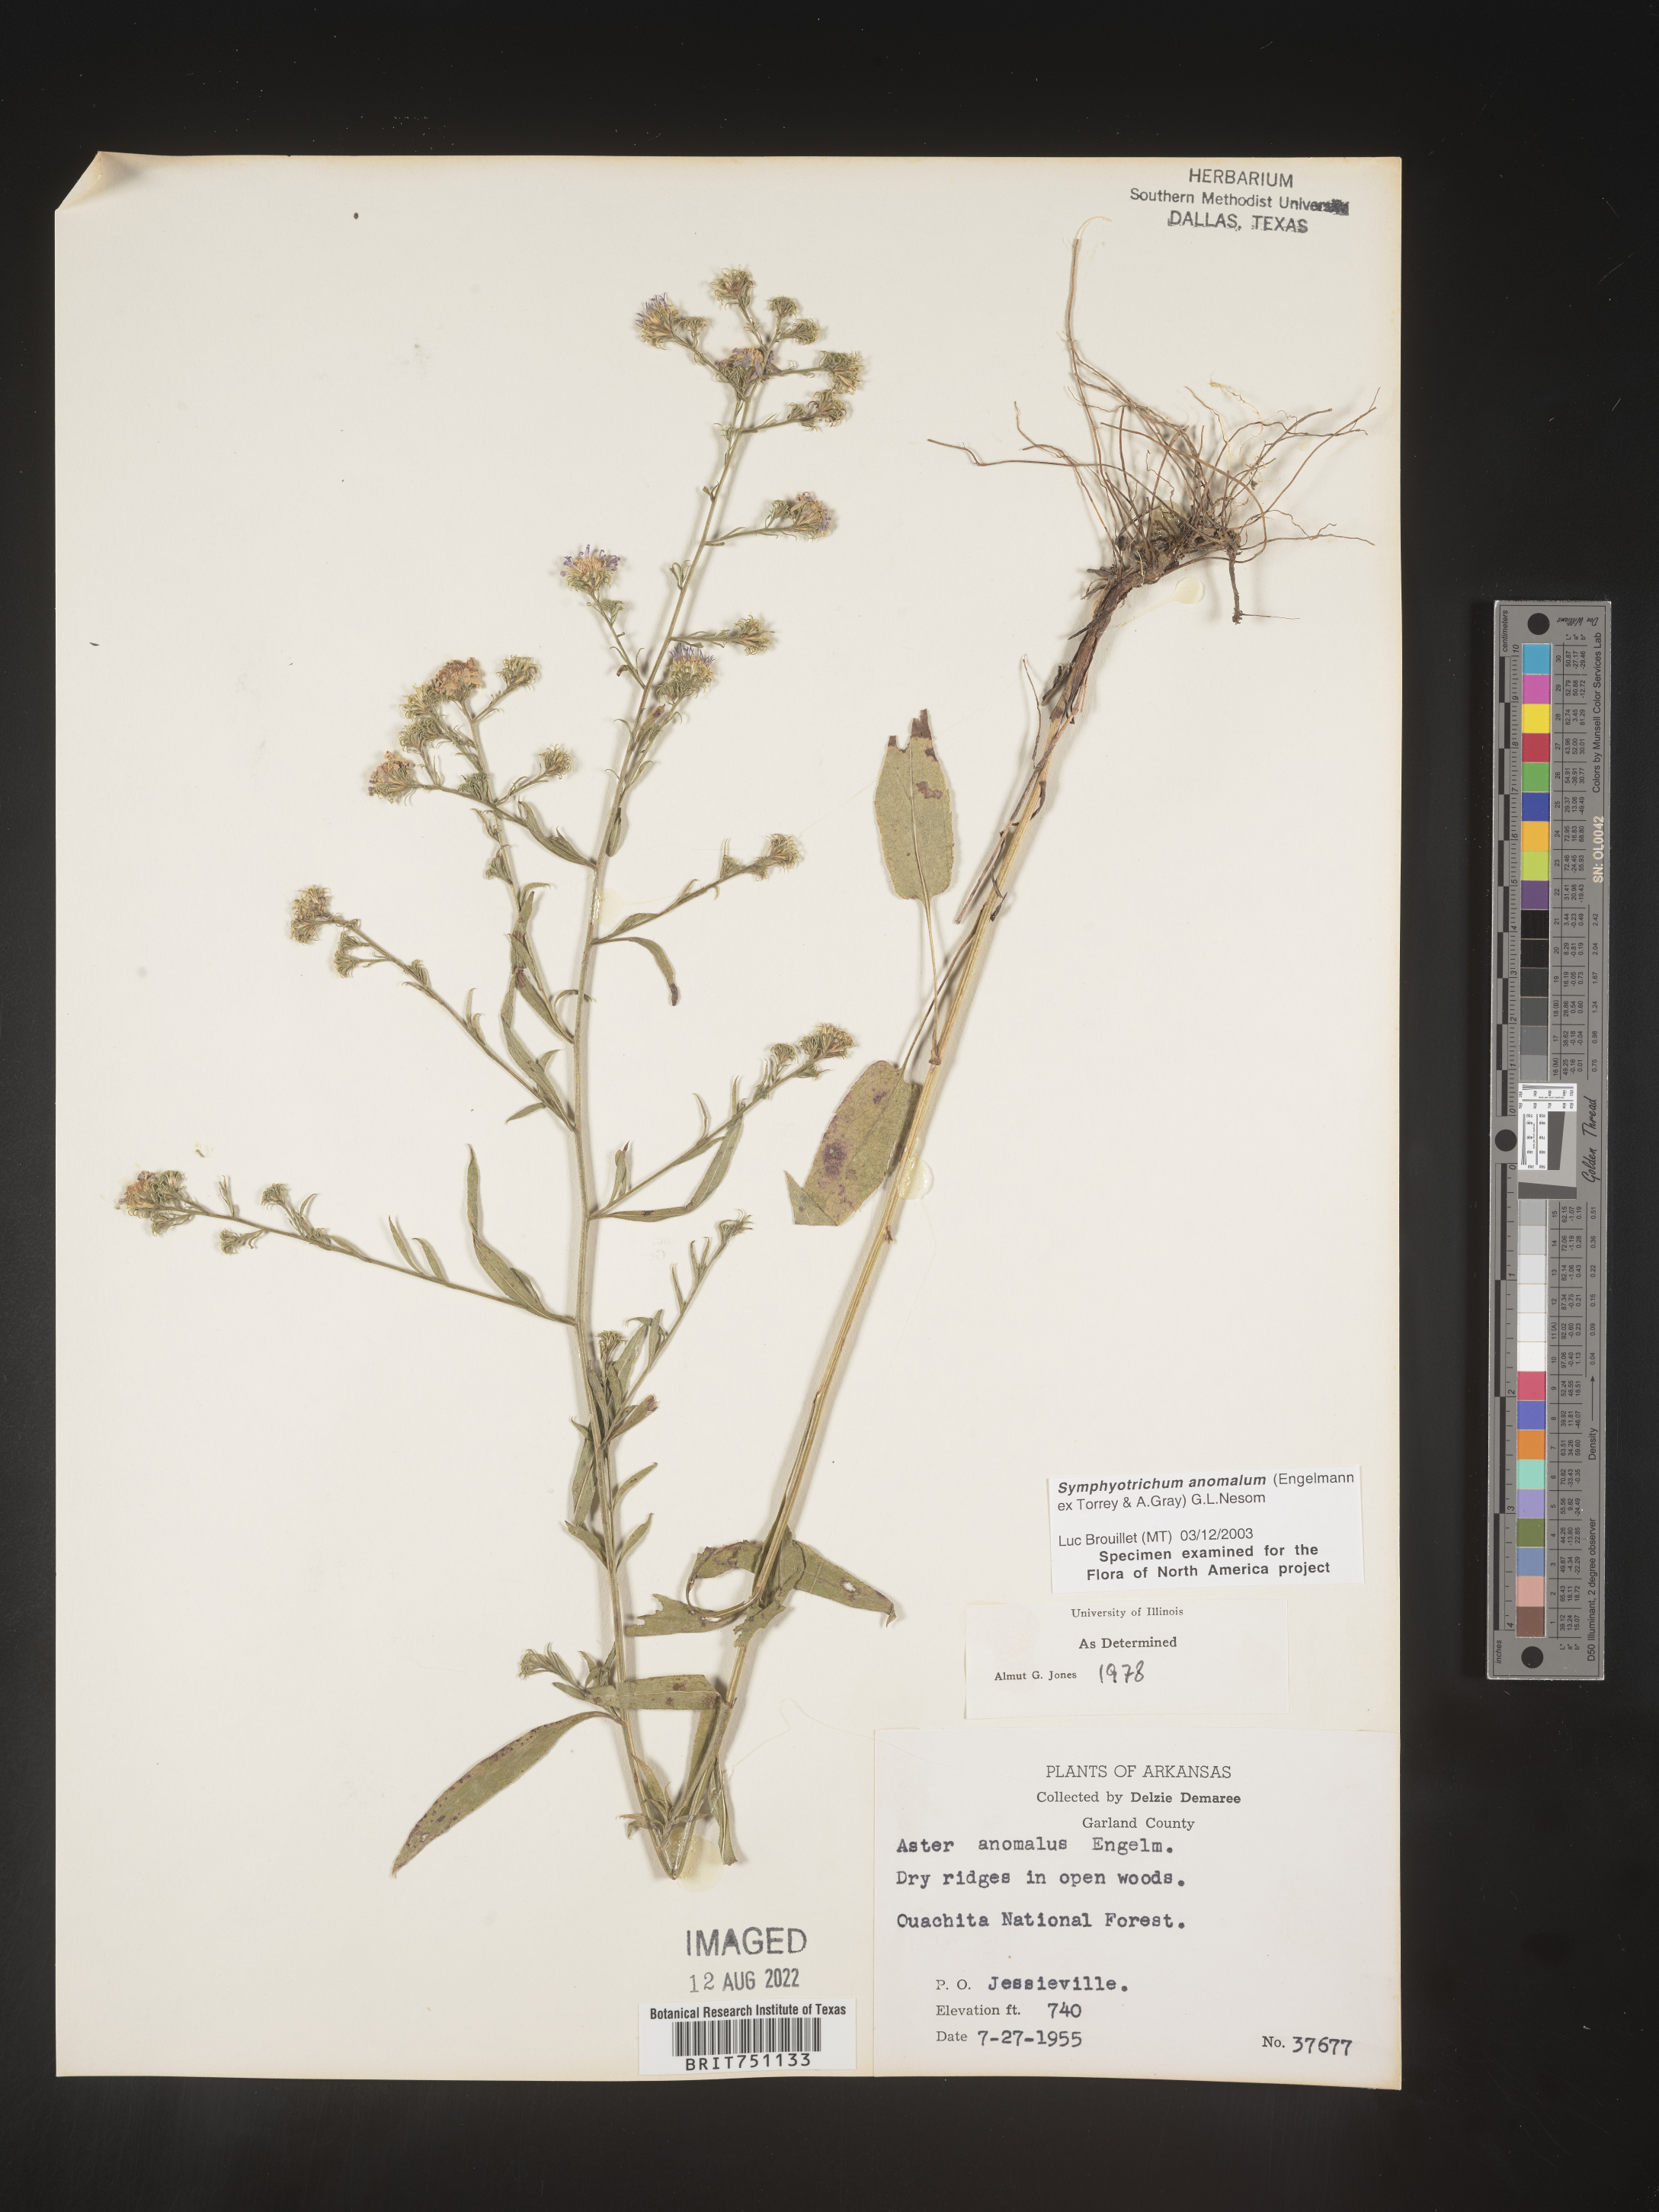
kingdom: Plantae
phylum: Tracheophyta
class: Magnoliopsida
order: Asterales
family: Asteraceae
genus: Symphyotrichum
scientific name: Symphyotrichum anomalum
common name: Many-ray aster
